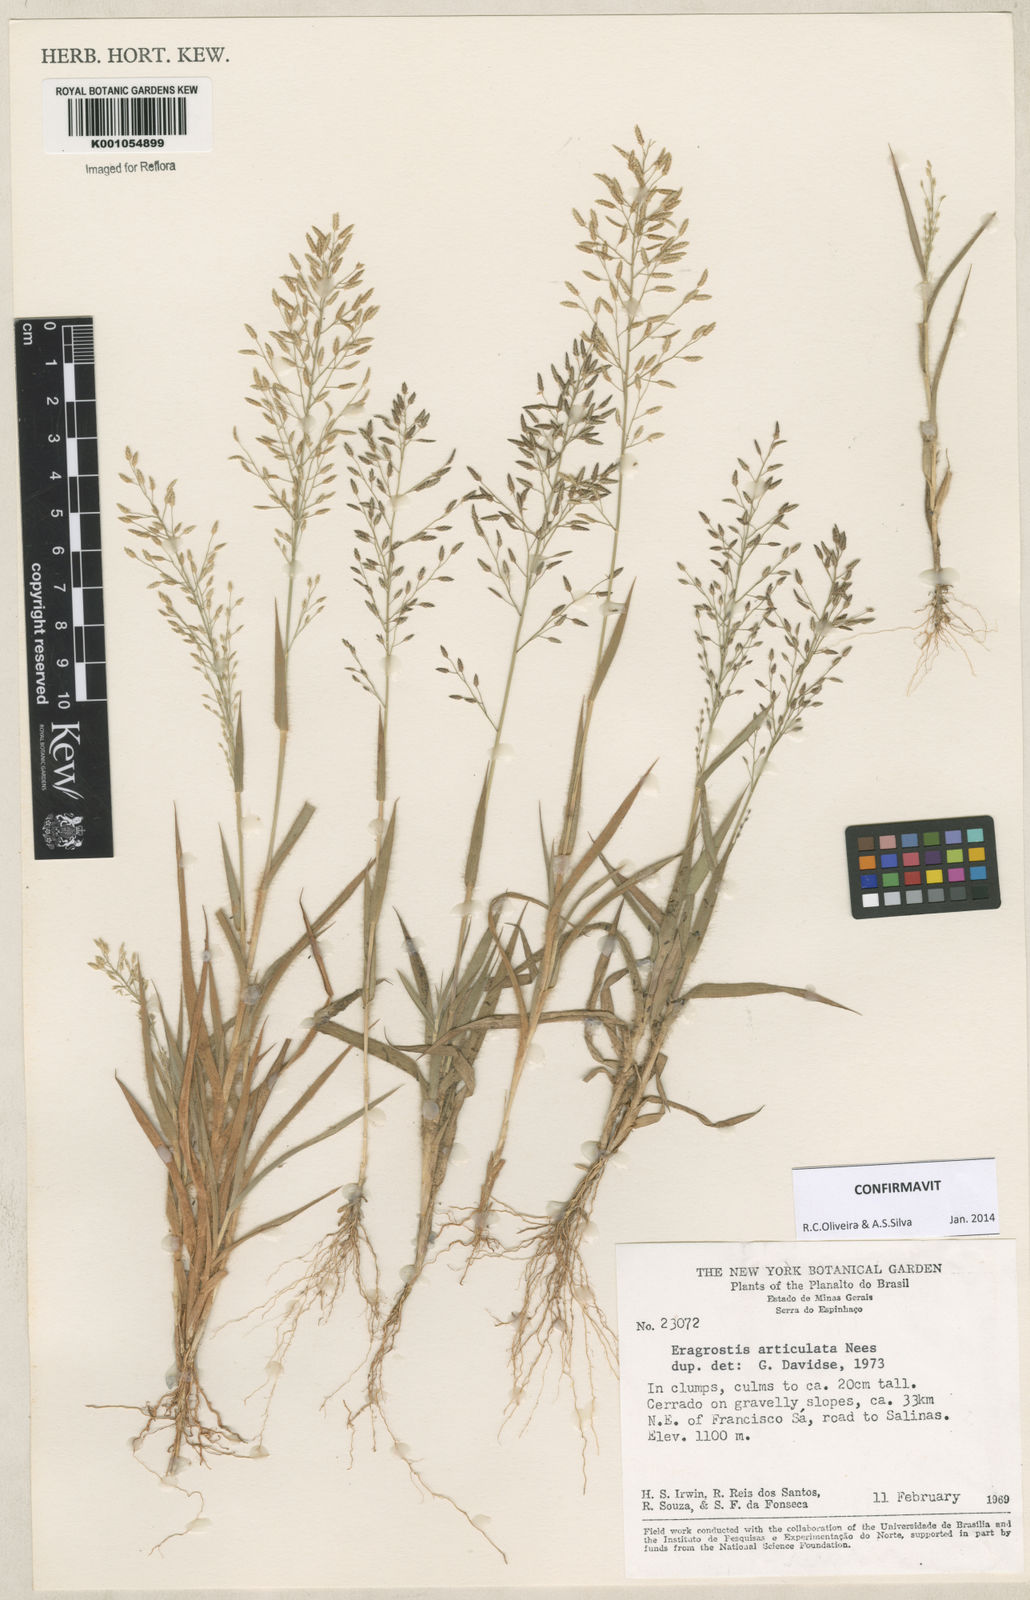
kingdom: Plantae
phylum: Tracheophyta
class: Liliopsida
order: Poales
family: Poaceae
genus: Eragrostis
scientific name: Eragrostis articulata
